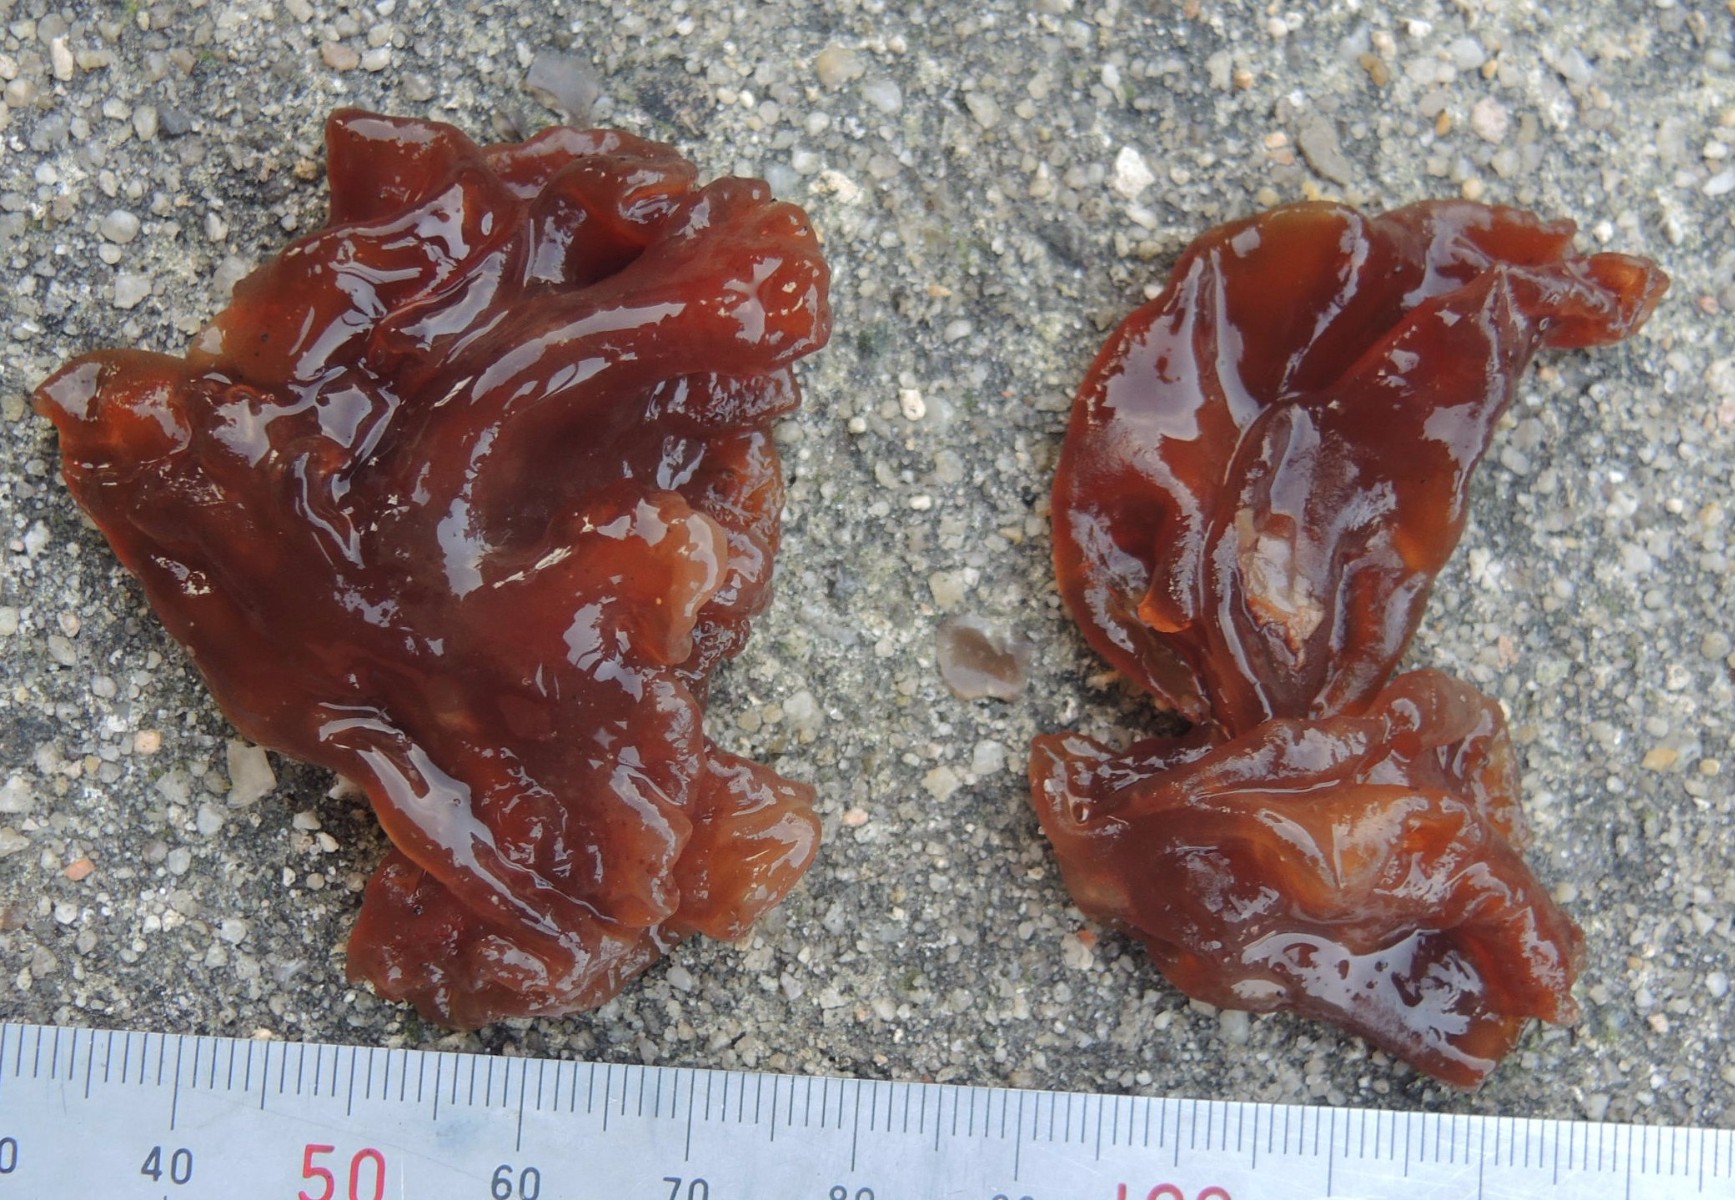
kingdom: Fungi
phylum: Basidiomycota
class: Tremellomycetes
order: Tremellales
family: Tremellaceae
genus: Phaeotremella
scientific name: Phaeotremella frondosa
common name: kæmpe-bævresvamp
